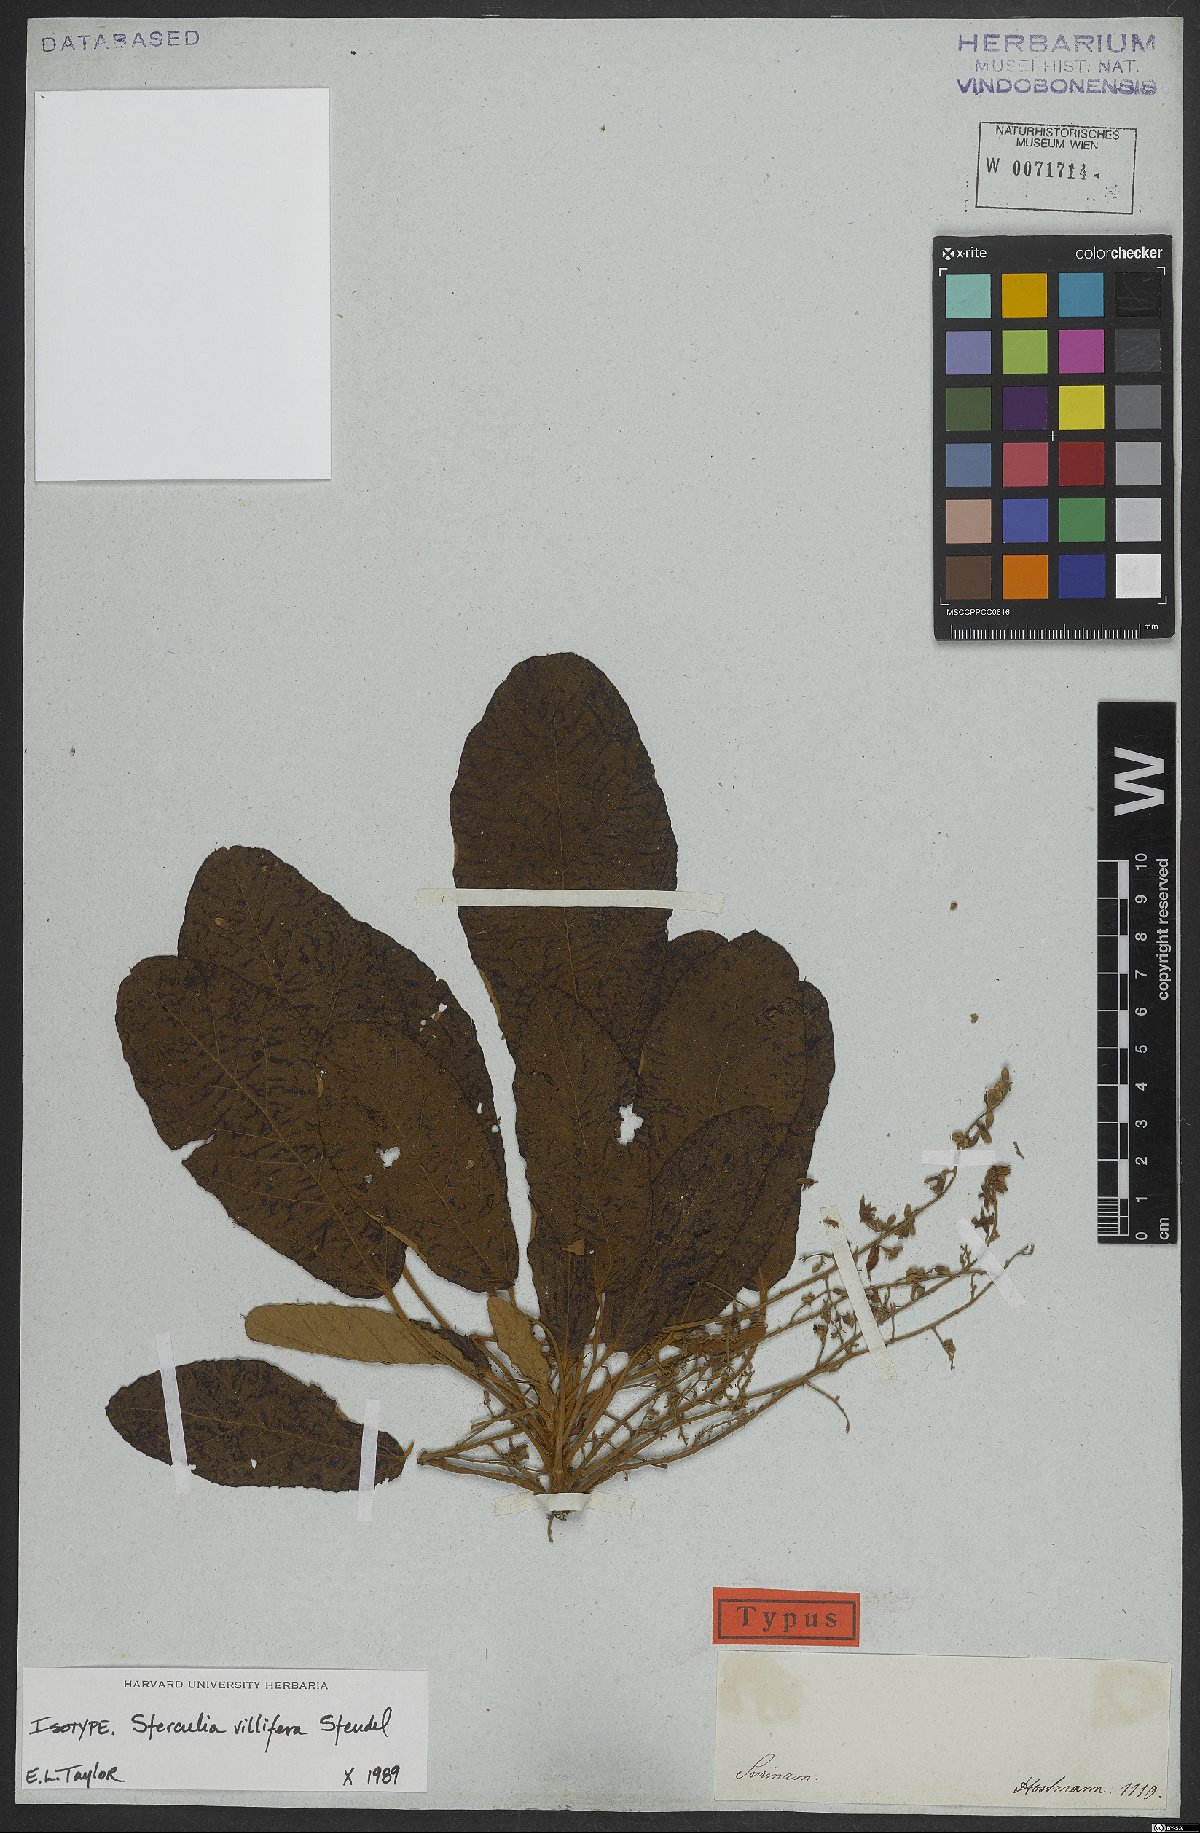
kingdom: Plantae
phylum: Tracheophyta
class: Magnoliopsida
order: Malvales
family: Malvaceae
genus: Sterculia
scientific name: Sterculia villifera
